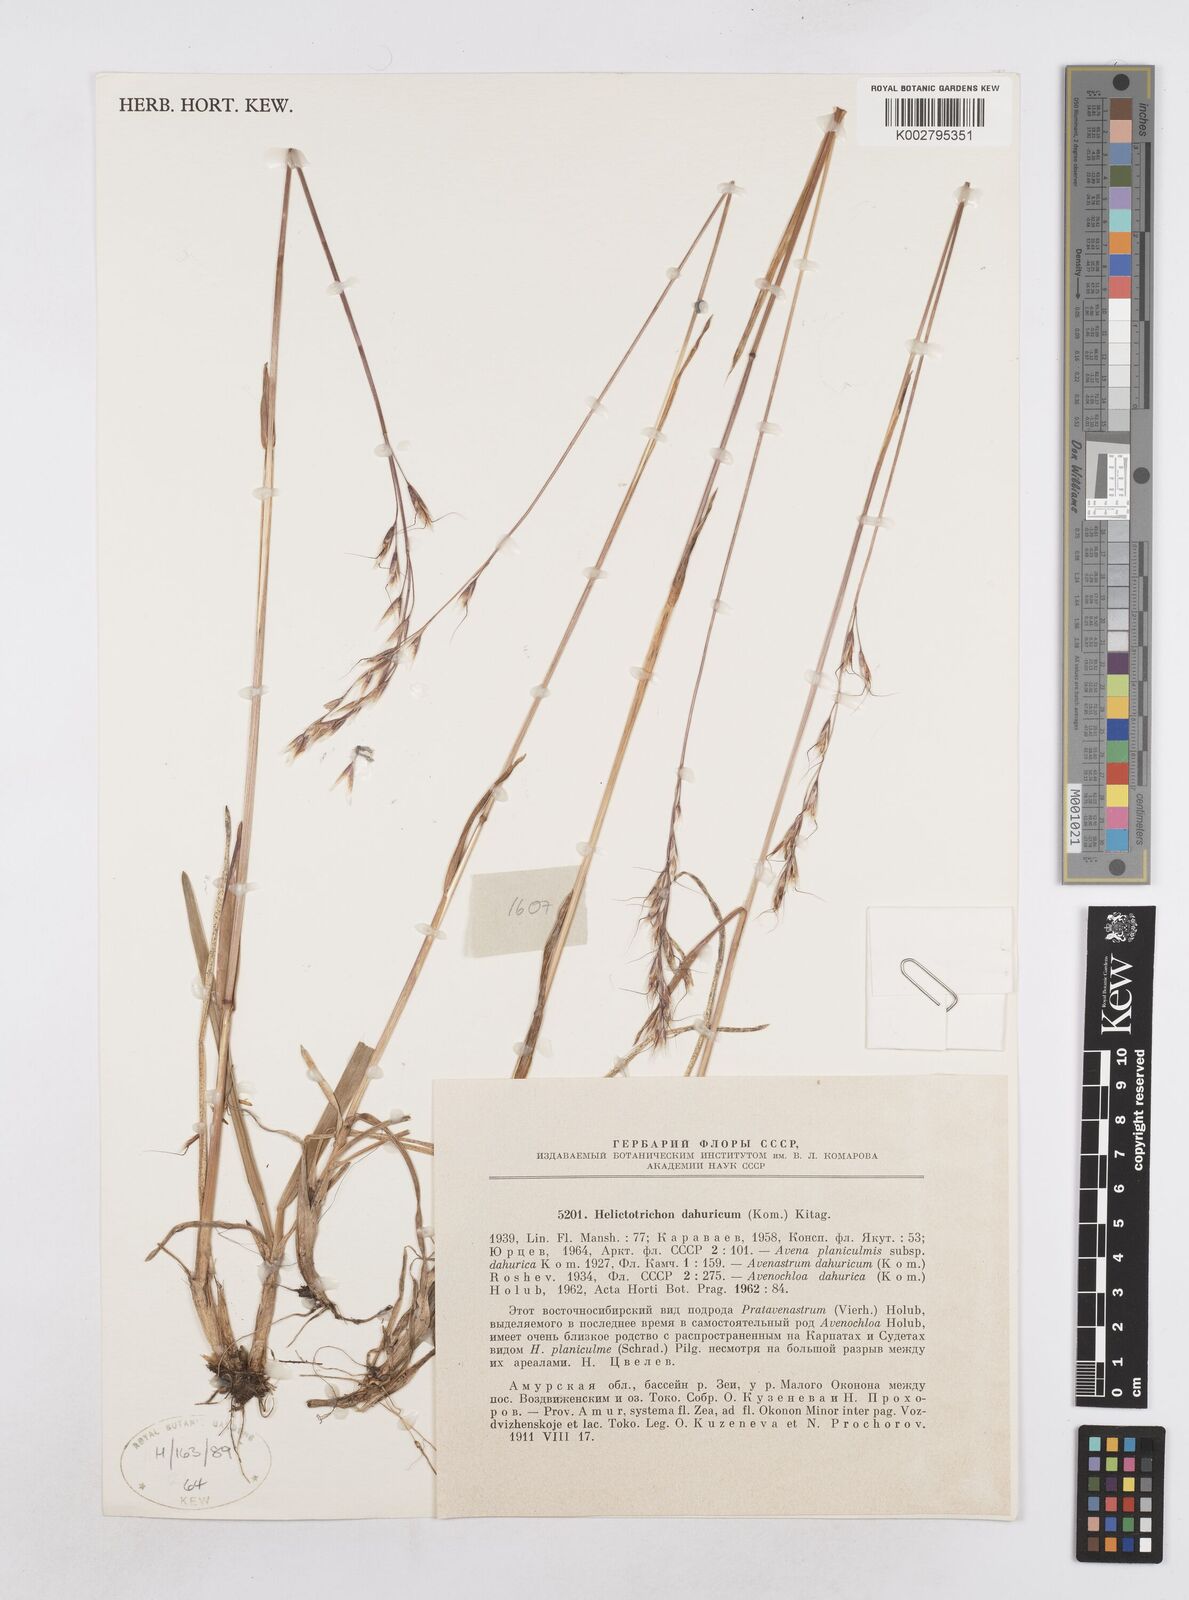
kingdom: Plantae
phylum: Tracheophyta
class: Liliopsida
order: Poales
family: Poaceae
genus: Helictochloa
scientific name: Helictochloa dahurica
